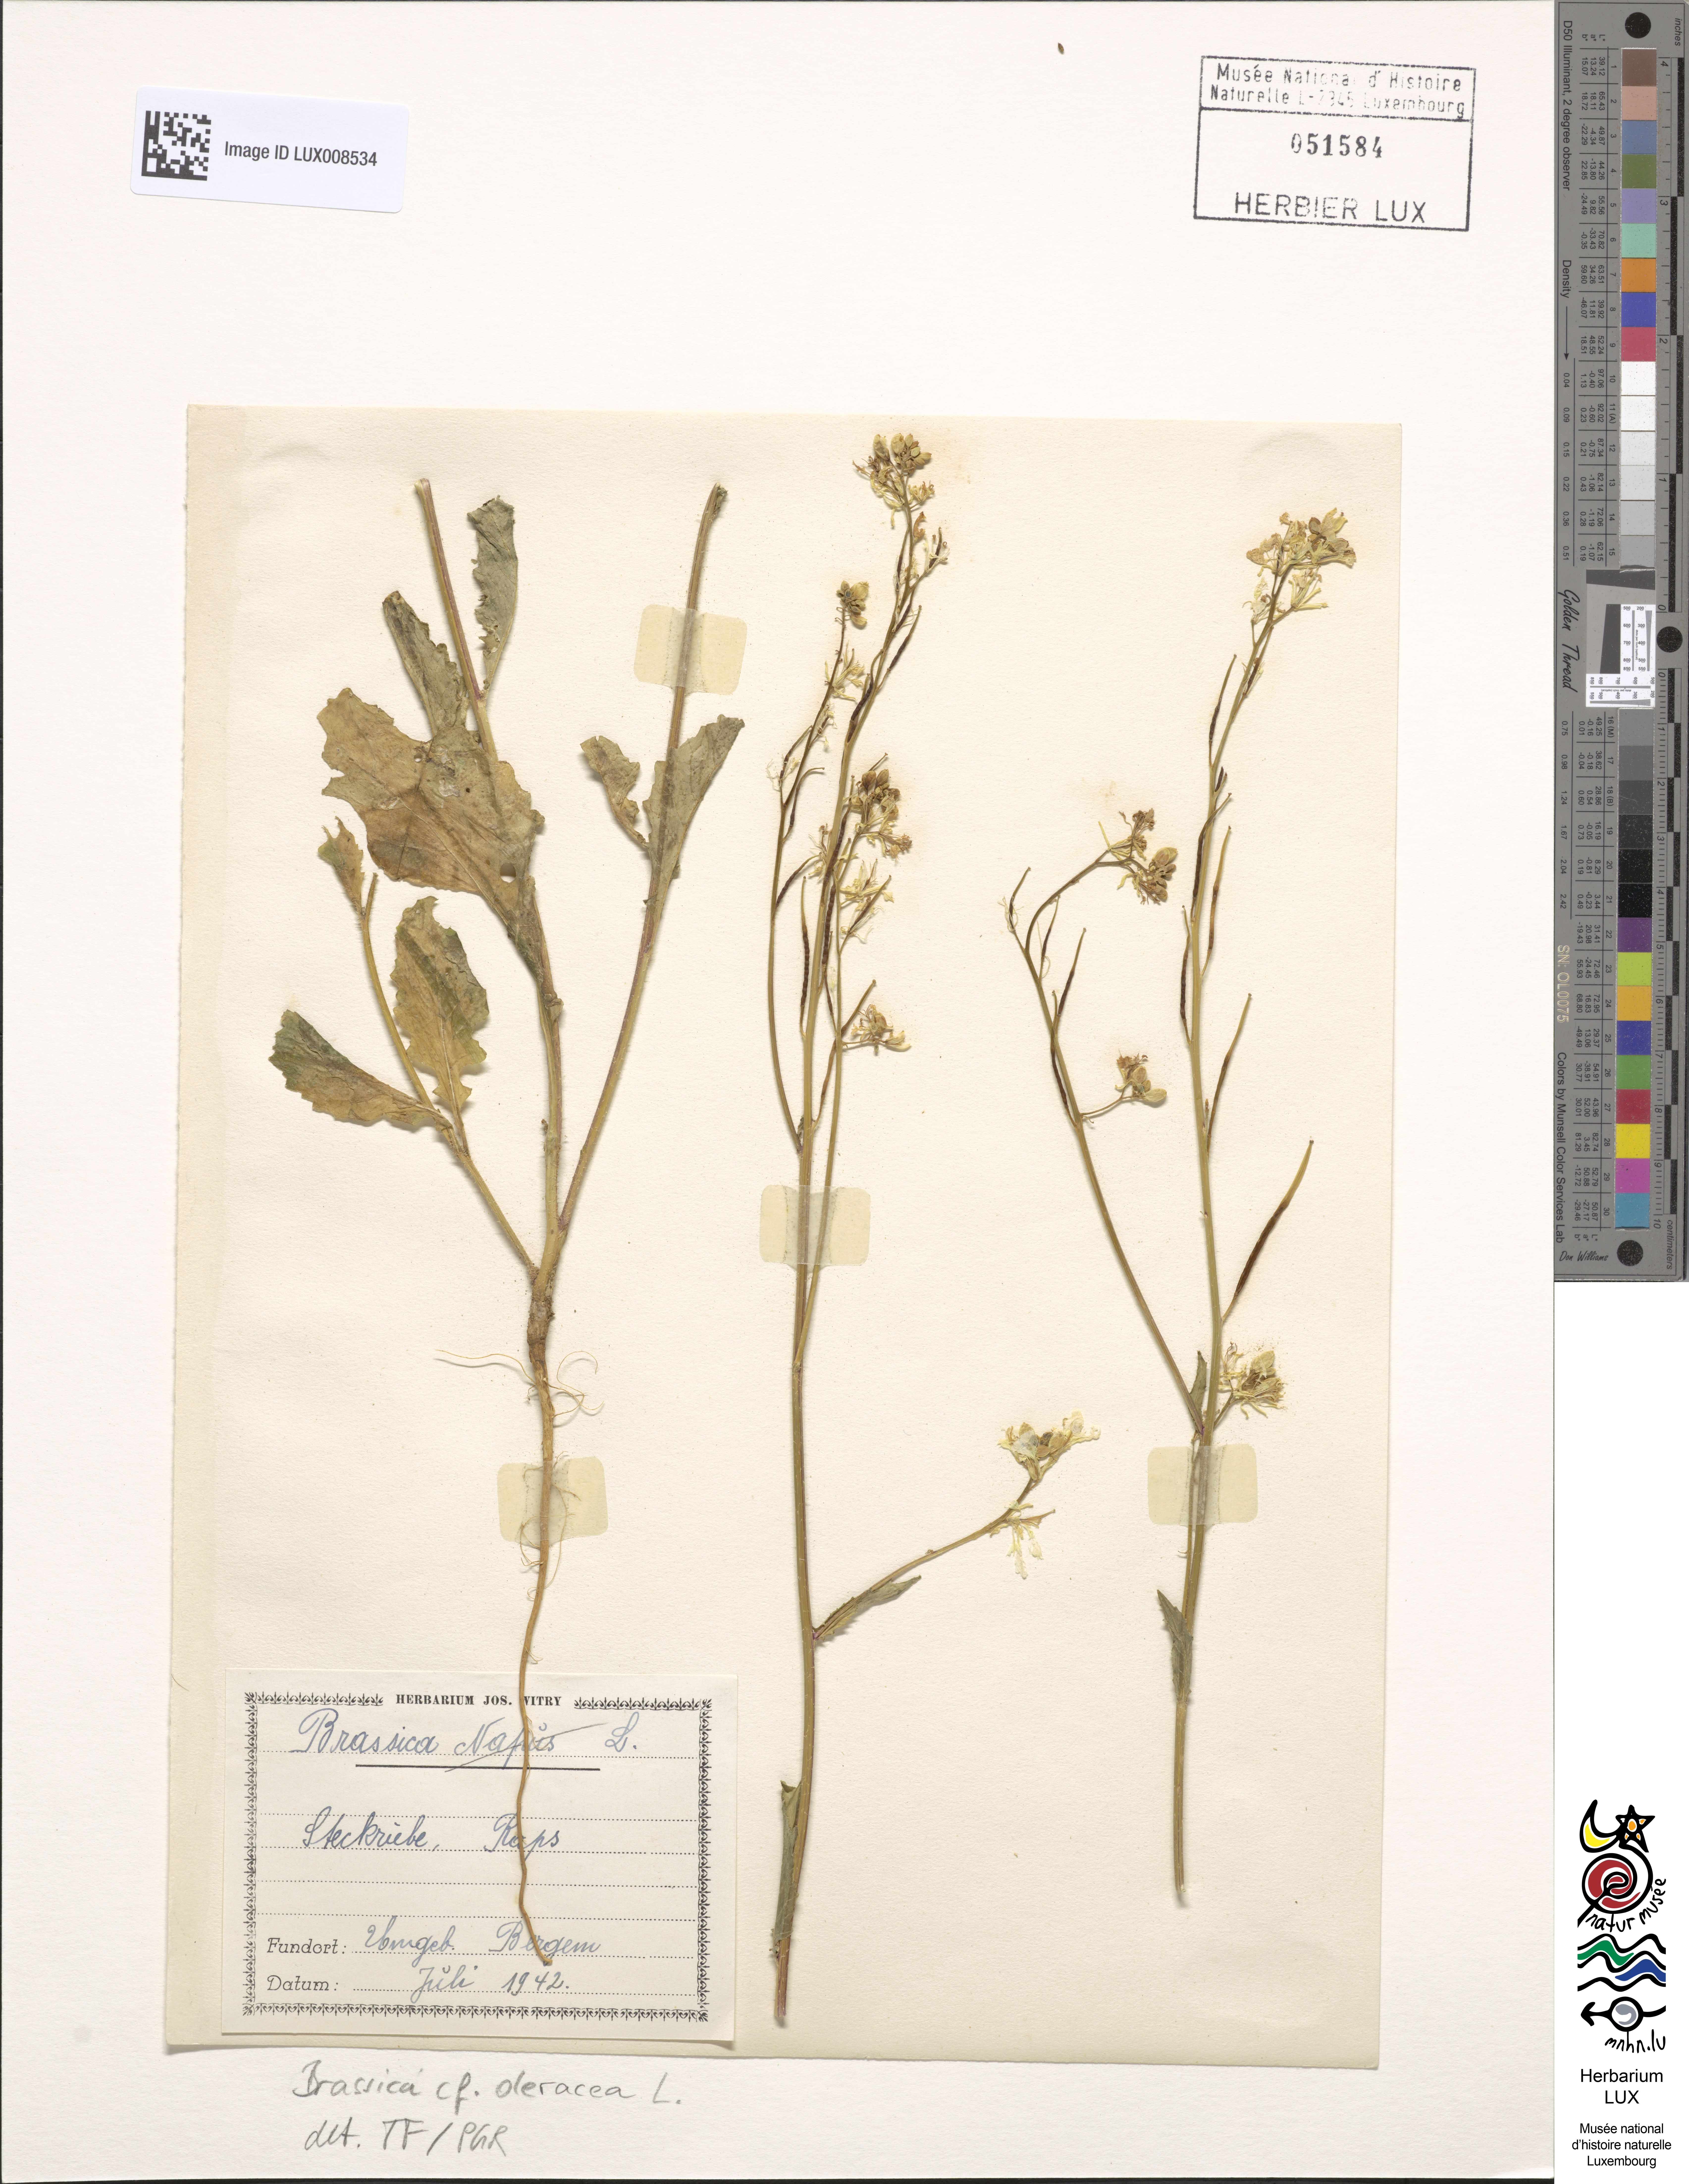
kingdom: Plantae
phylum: Tracheophyta
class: Magnoliopsida
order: Brassicales
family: Brassicaceae
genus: Brassica
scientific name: Brassica oleracea
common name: Cabbage
